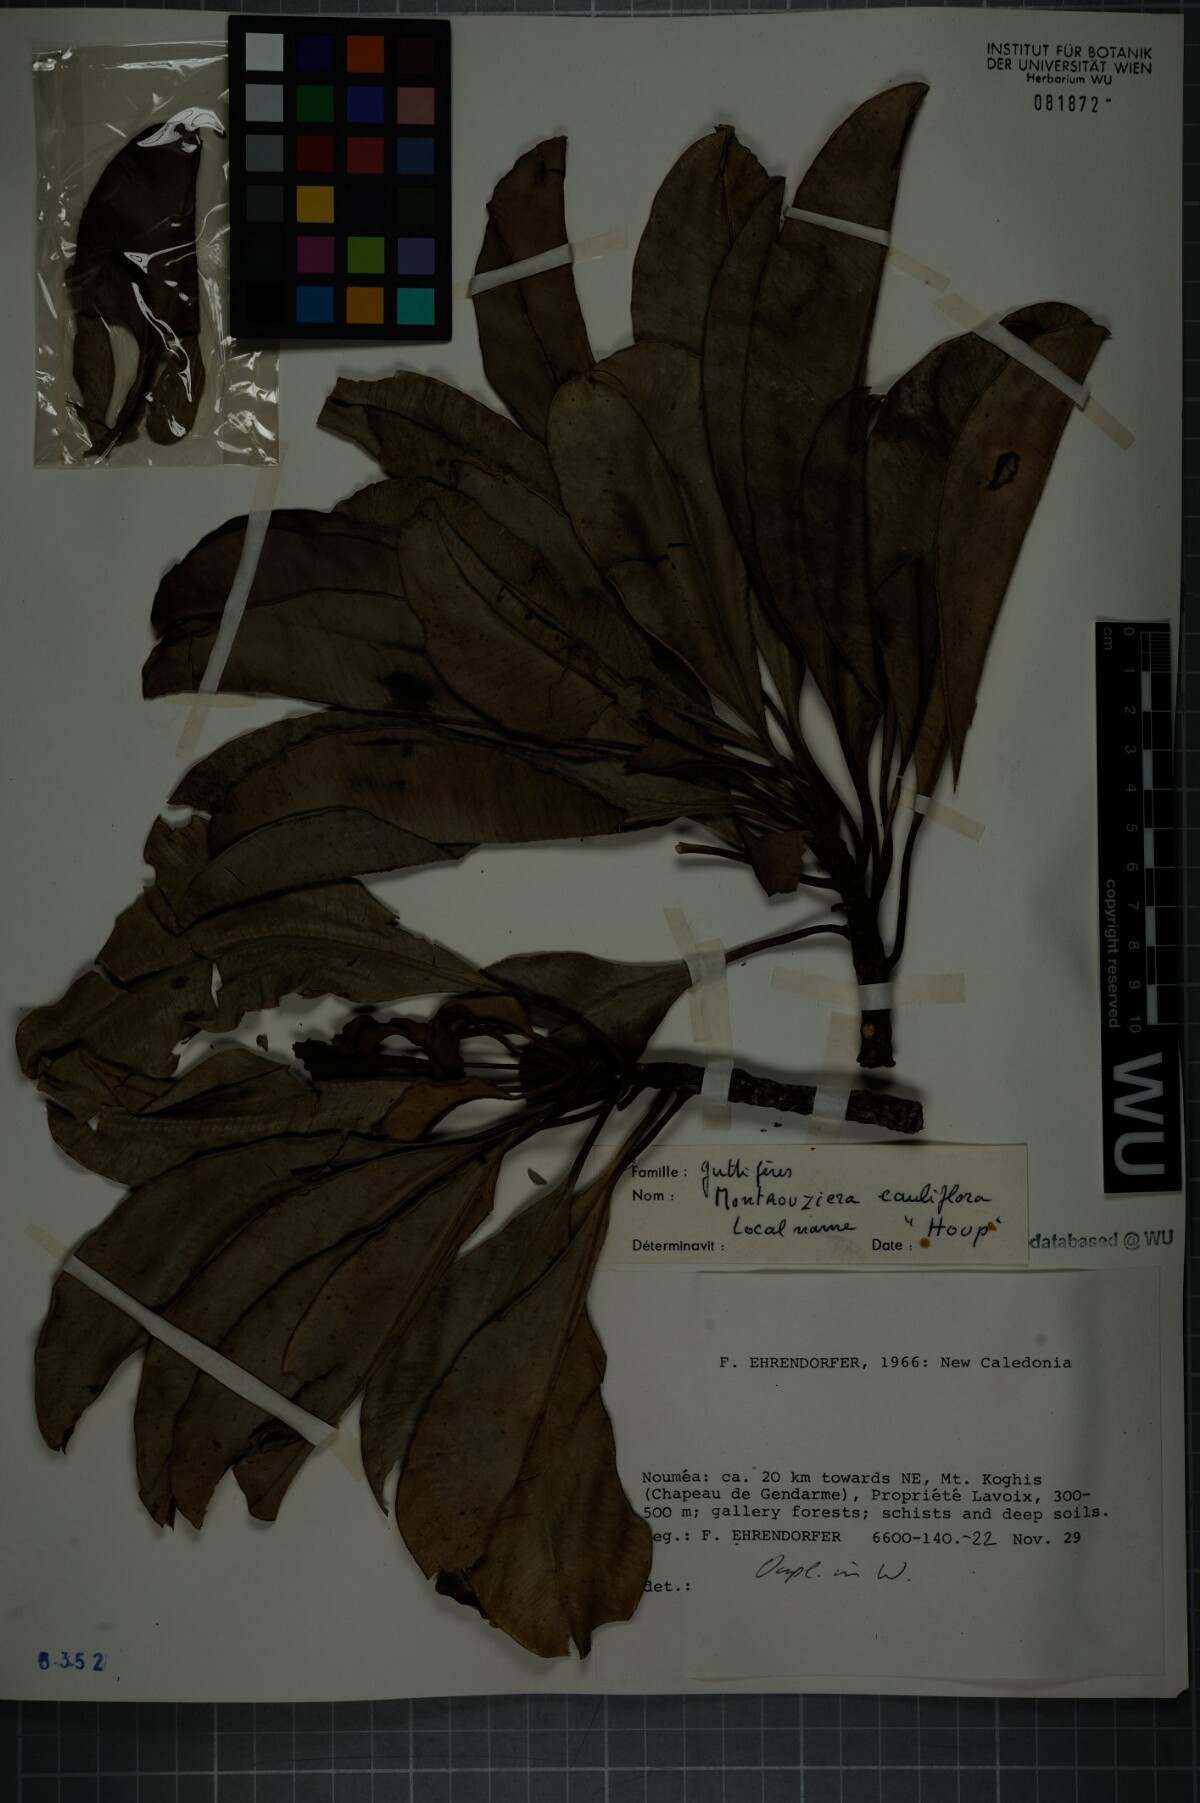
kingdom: Plantae
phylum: Tracheophyta
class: Magnoliopsida
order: Malpighiales
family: Clusiaceae
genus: Montrouziera
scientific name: Montrouziera cauliflora
